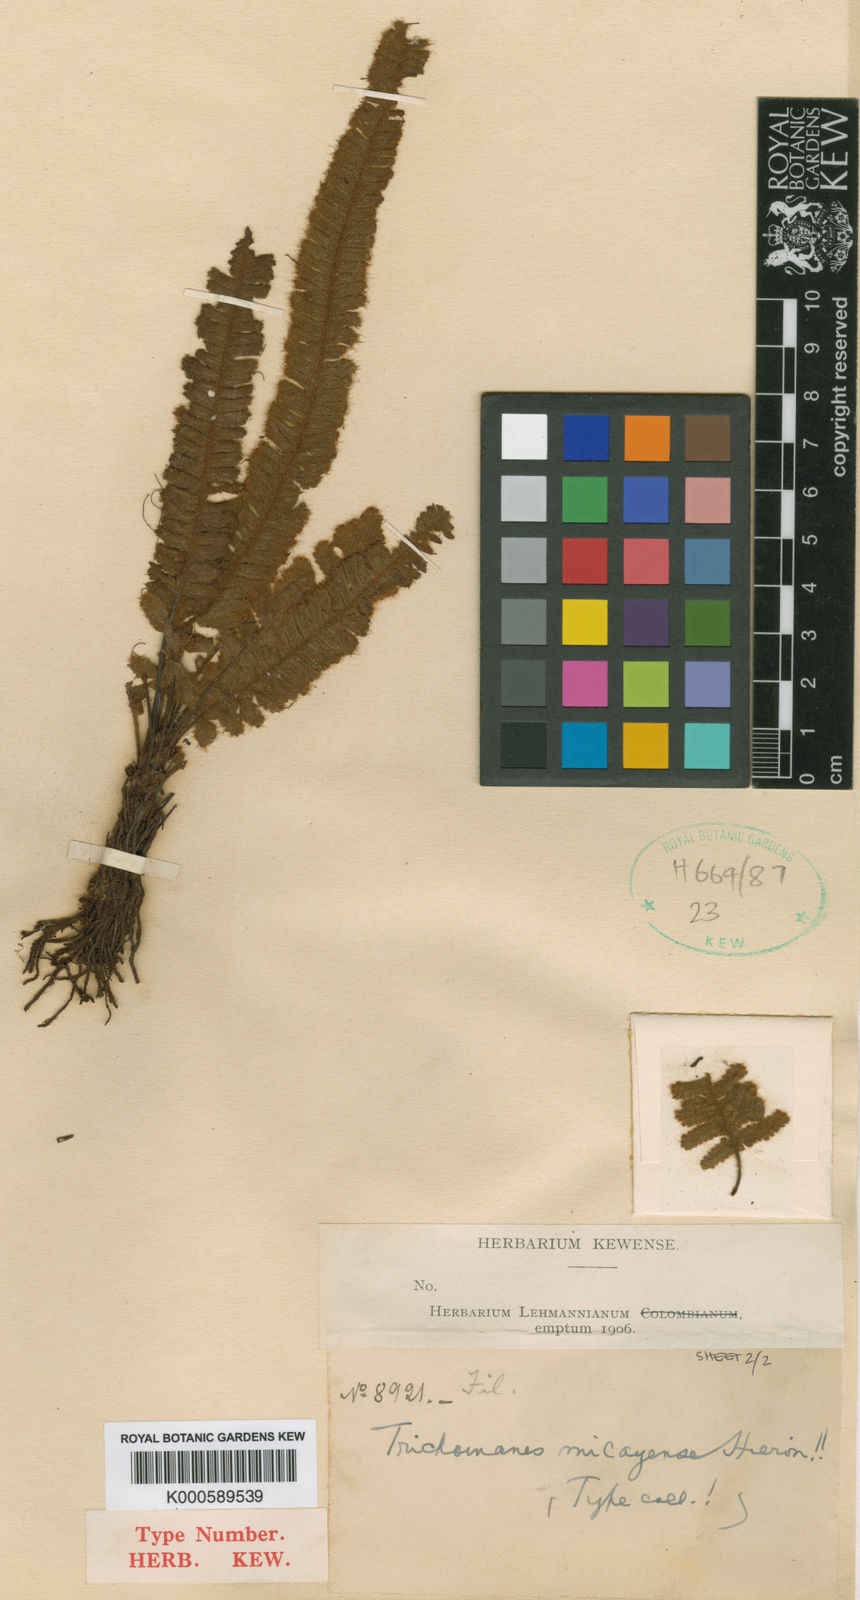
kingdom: Plantae
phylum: Tracheophyta
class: Polypodiopsida
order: Hymenophyllales
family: Hymenophyllaceae
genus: Trichomanes
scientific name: Trichomanes micayense
